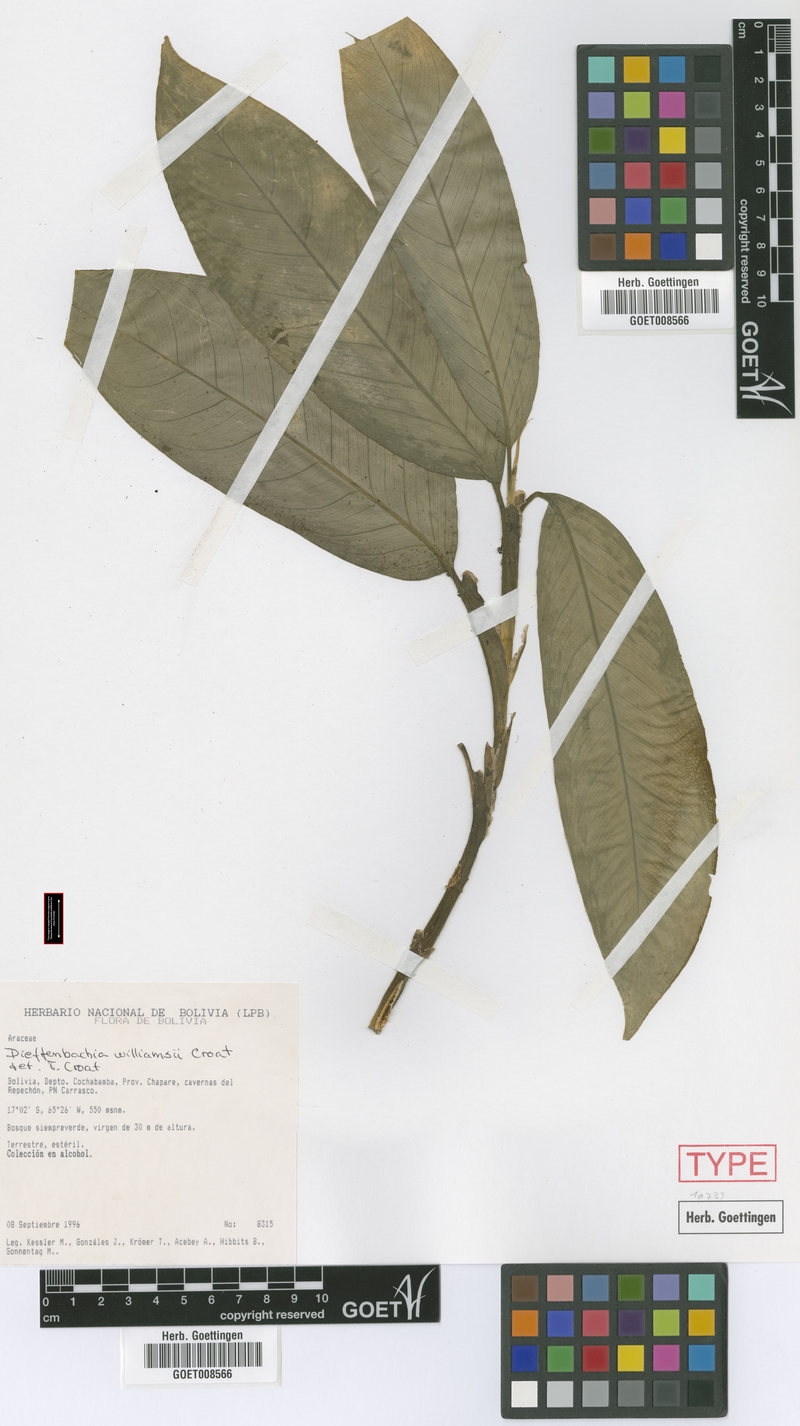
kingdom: Plantae
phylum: Tracheophyta
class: Liliopsida
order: Alismatales
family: Araceae
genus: Dieffenbachia
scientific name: Dieffenbachia williamsii
